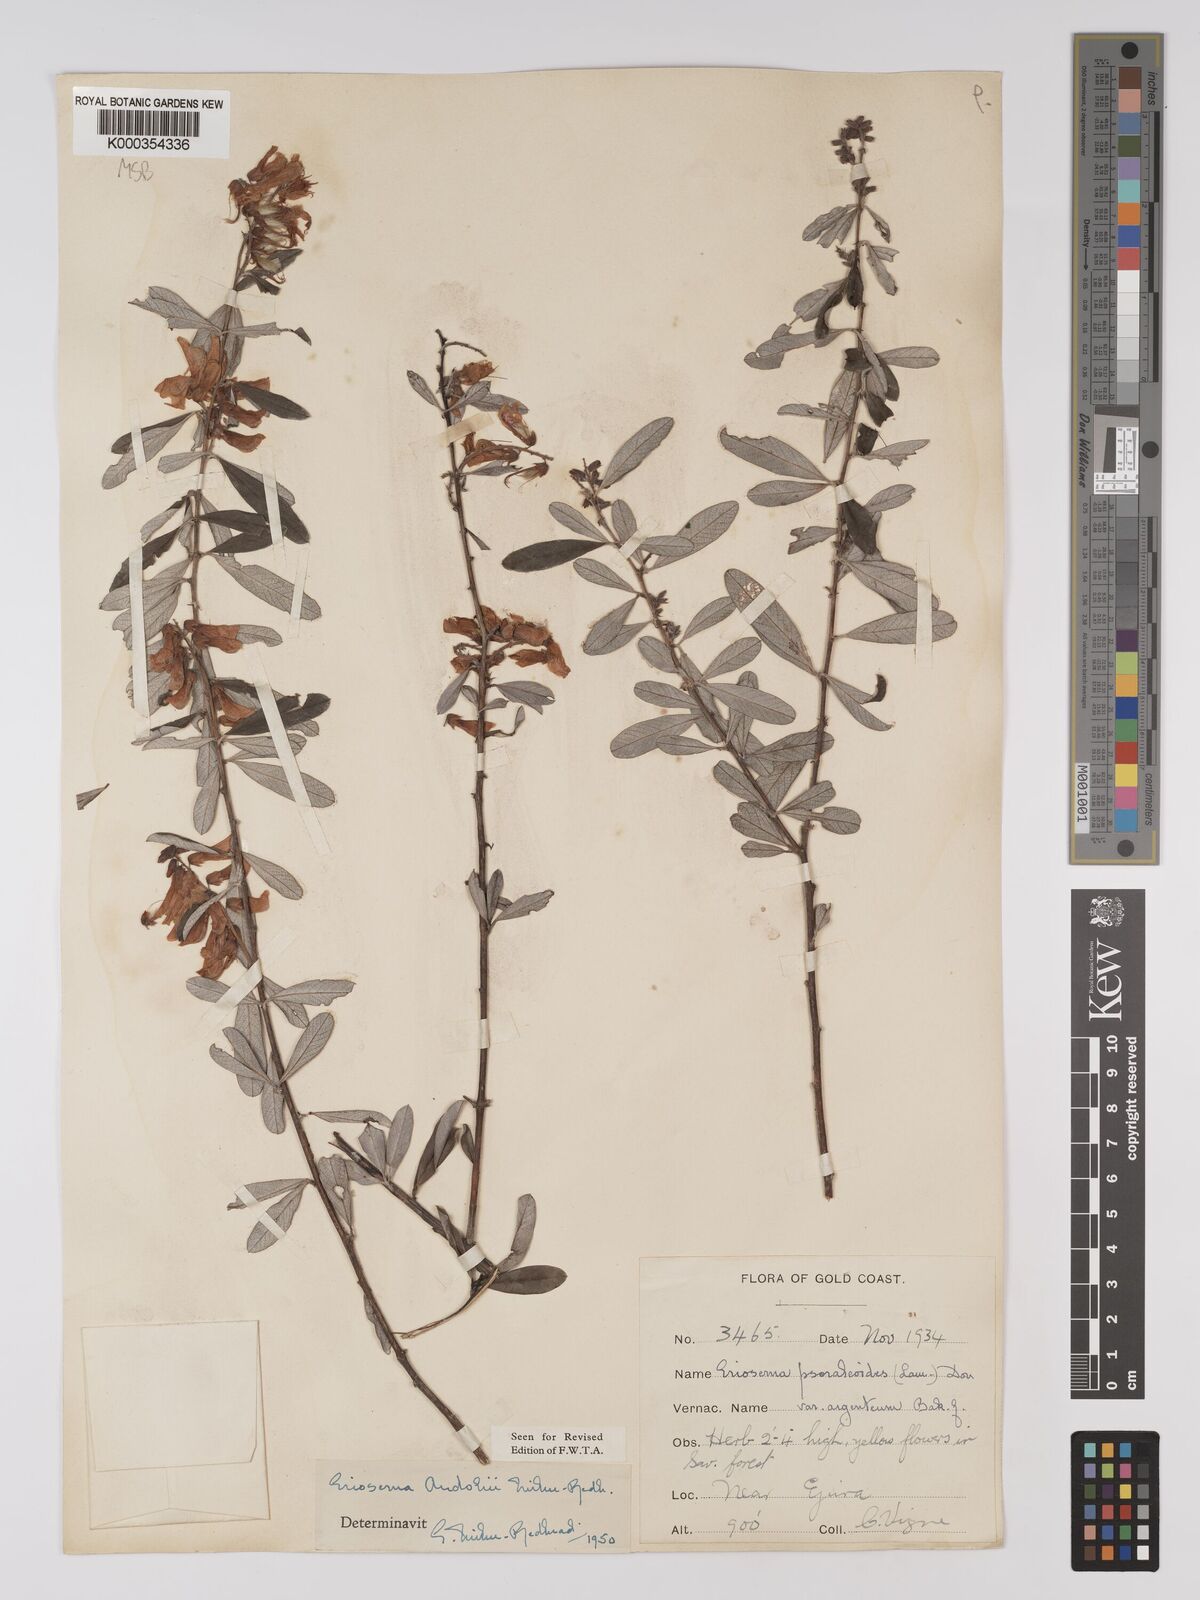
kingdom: Plantae
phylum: Tracheophyta
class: Magnoliopsida
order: Fabales
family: Fabaceae
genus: Eriosema
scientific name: Eriosema andohii
